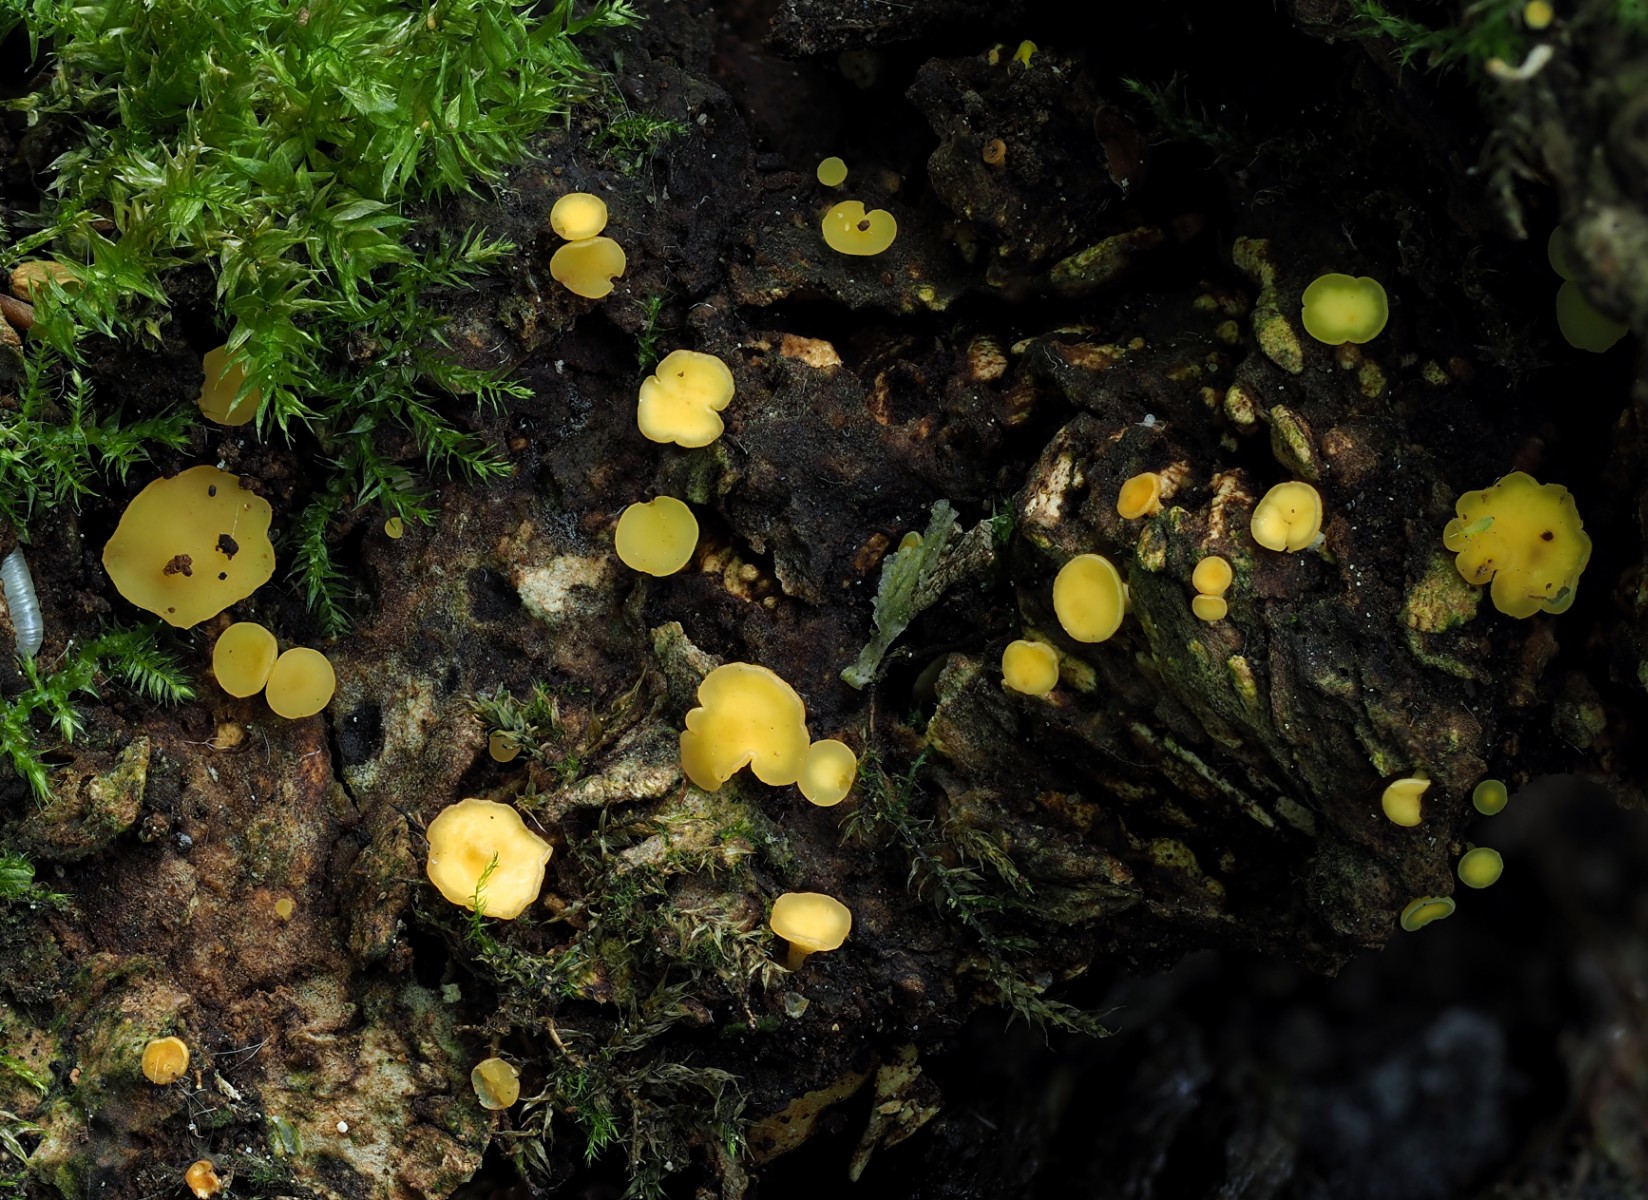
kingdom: Fungi
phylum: Ascomycota
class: Leotiomycetes
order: Helotiales
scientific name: Helotiales
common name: stilkskiveordenen
